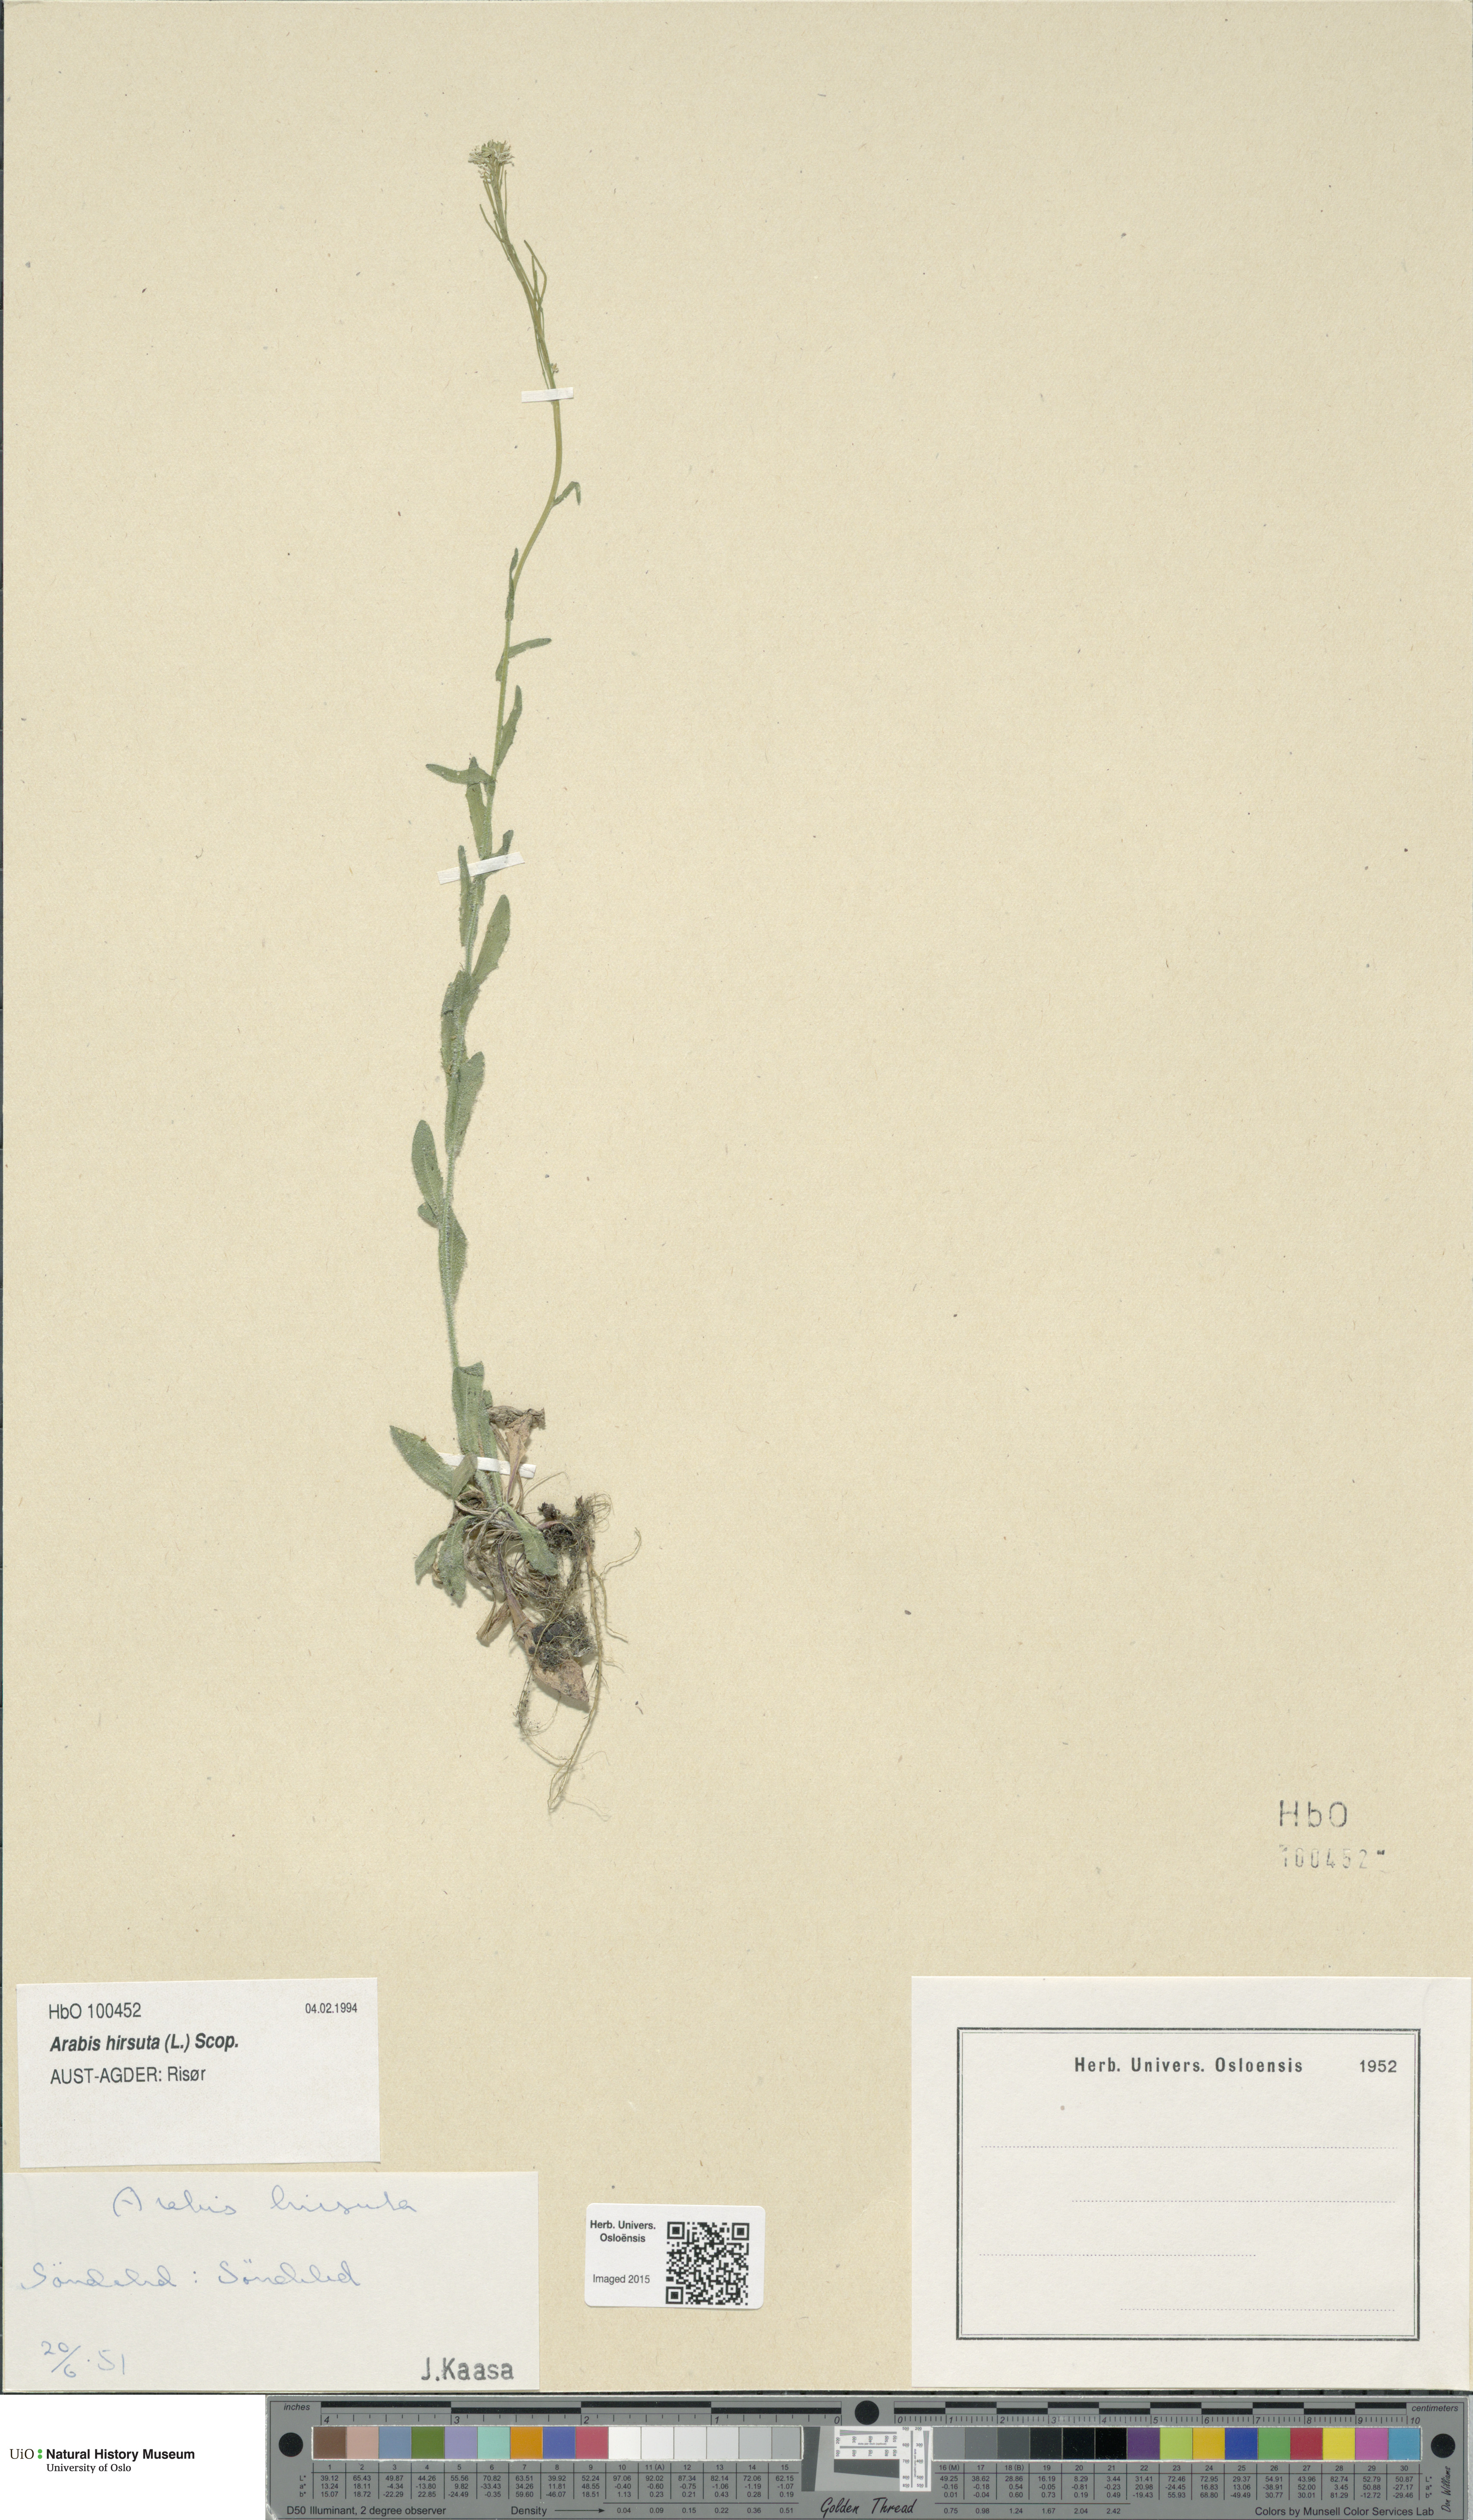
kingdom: Plantae
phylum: Tracheophyta
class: Magnoliopsida
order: Brassicales
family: Brassicaceae
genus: Arabis
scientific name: Arabis hirsuta
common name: Hairy rock-cress
